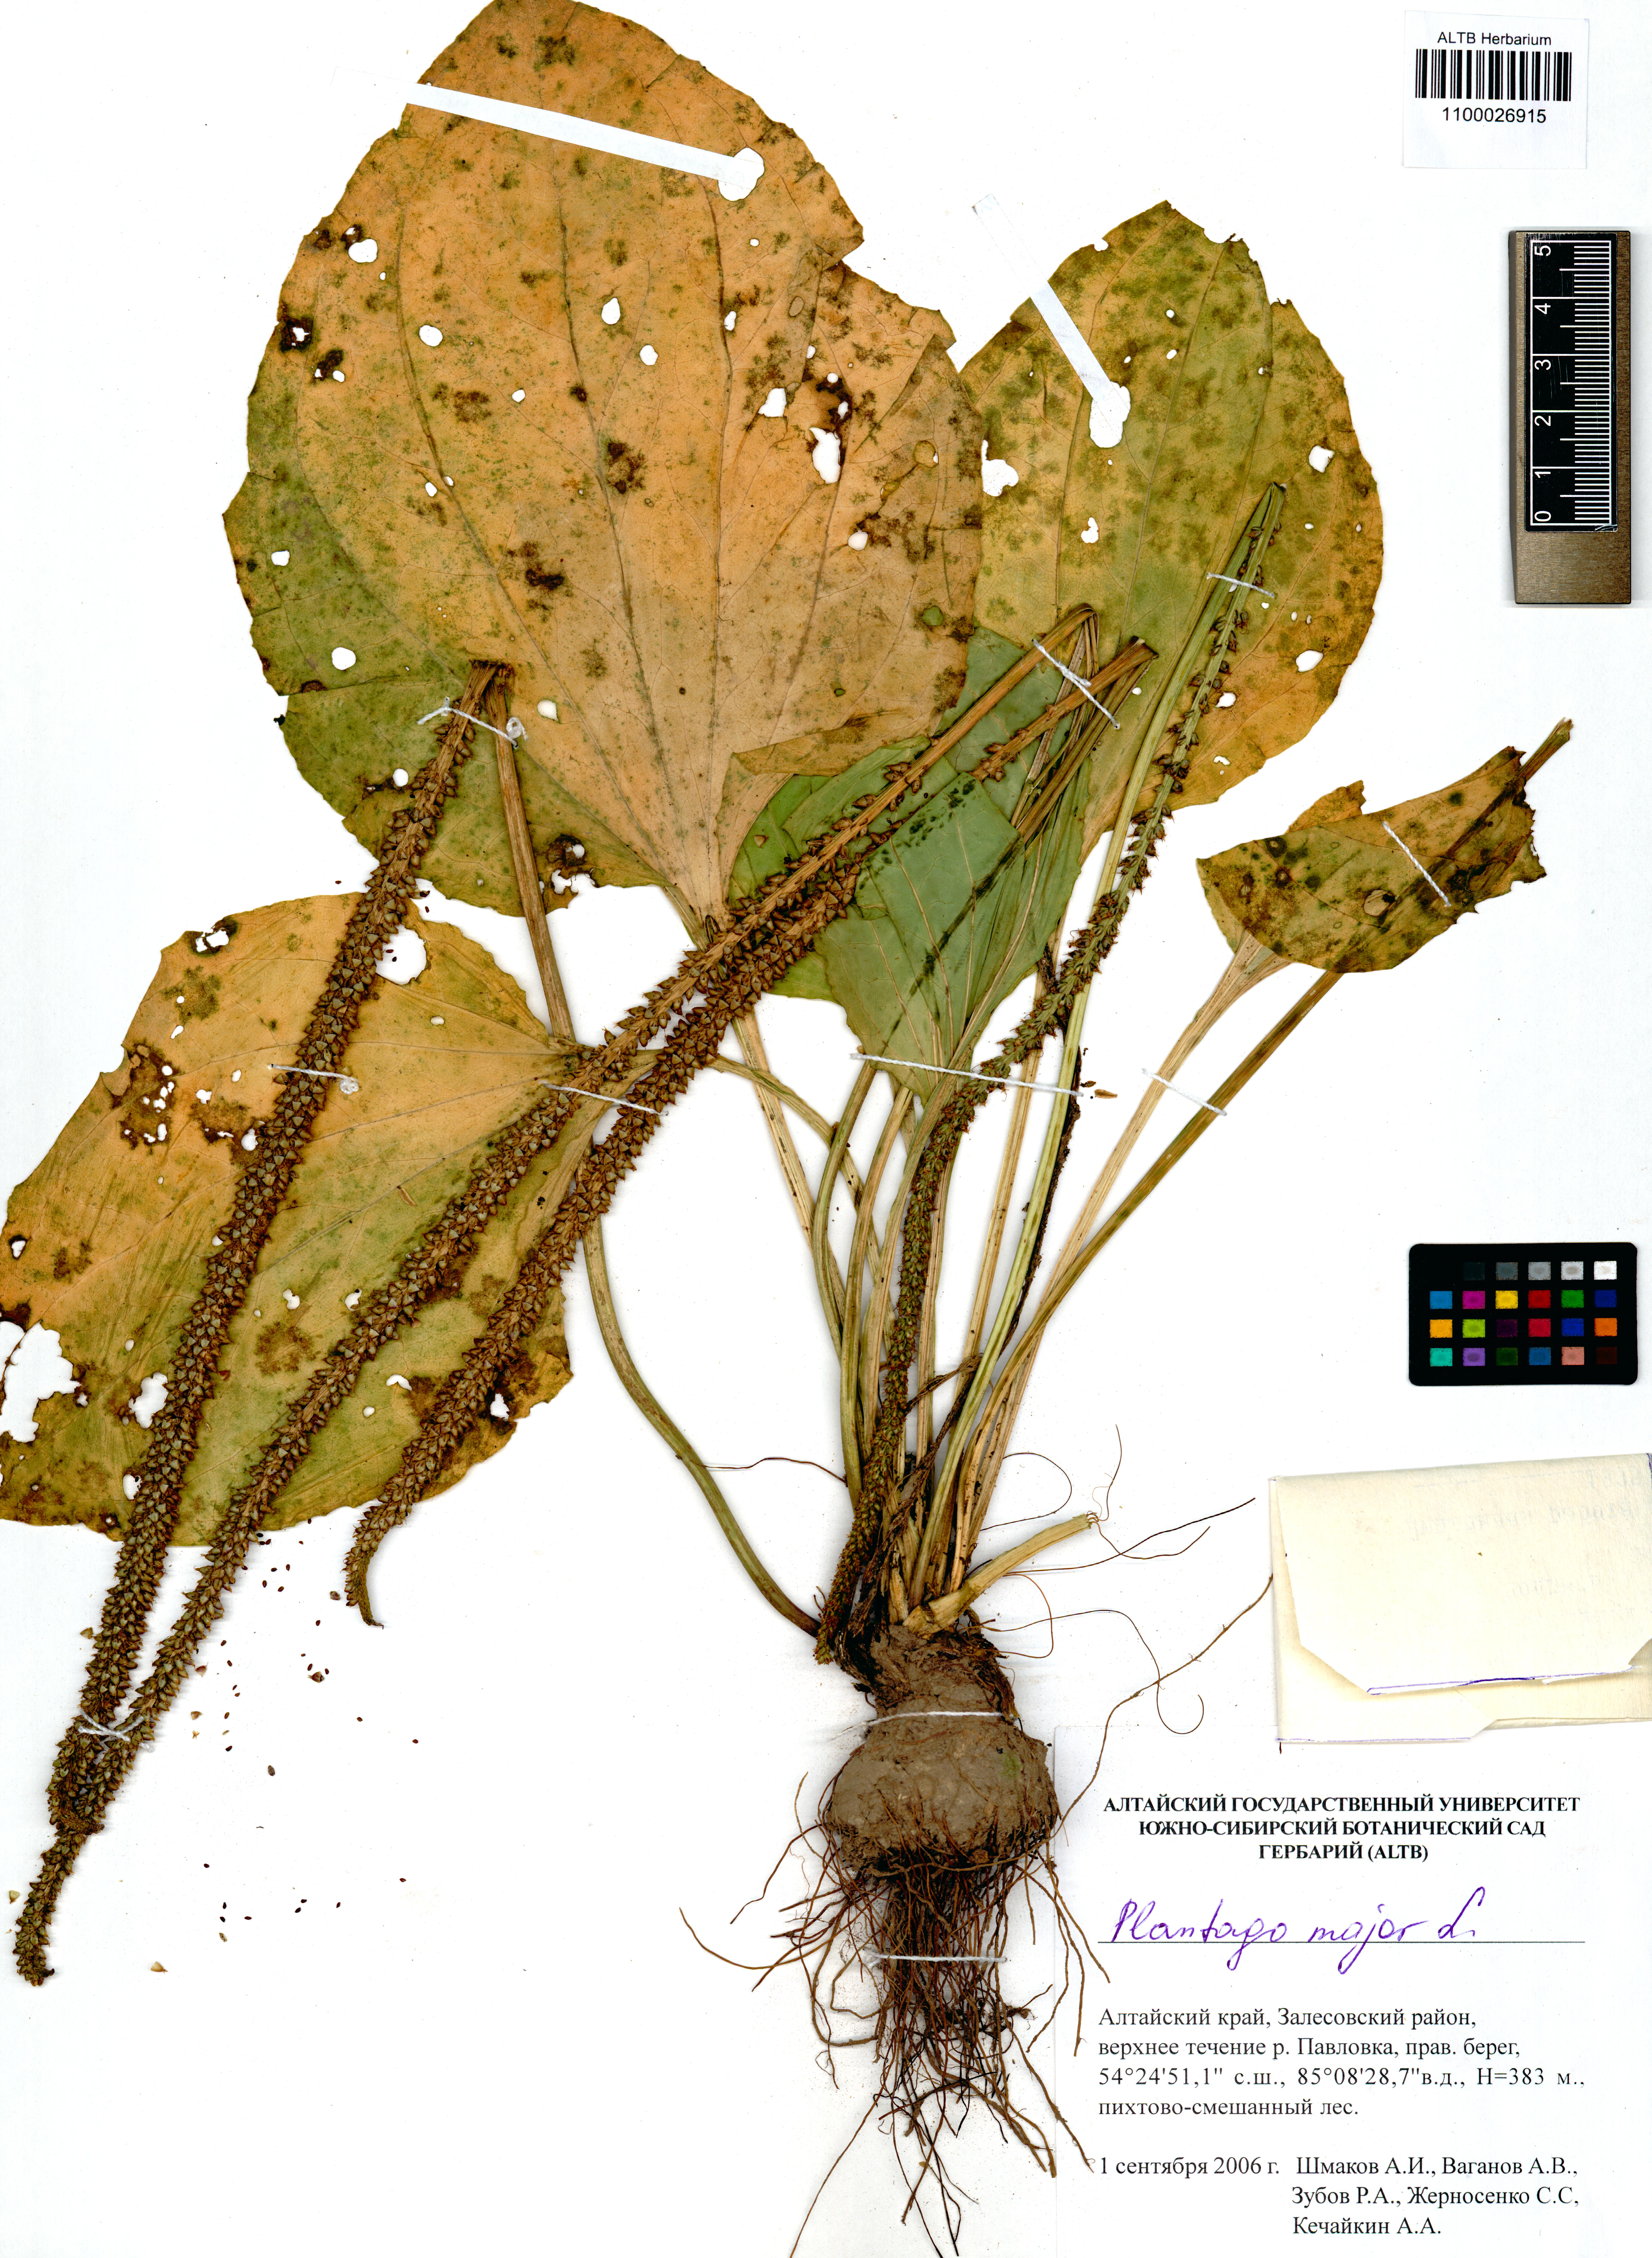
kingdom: Plantae
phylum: Tracheophyta
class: Magnoliopsida
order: Lamiales
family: Plantaginaceae
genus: Plantago
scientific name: Plantago major
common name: Common plantain
